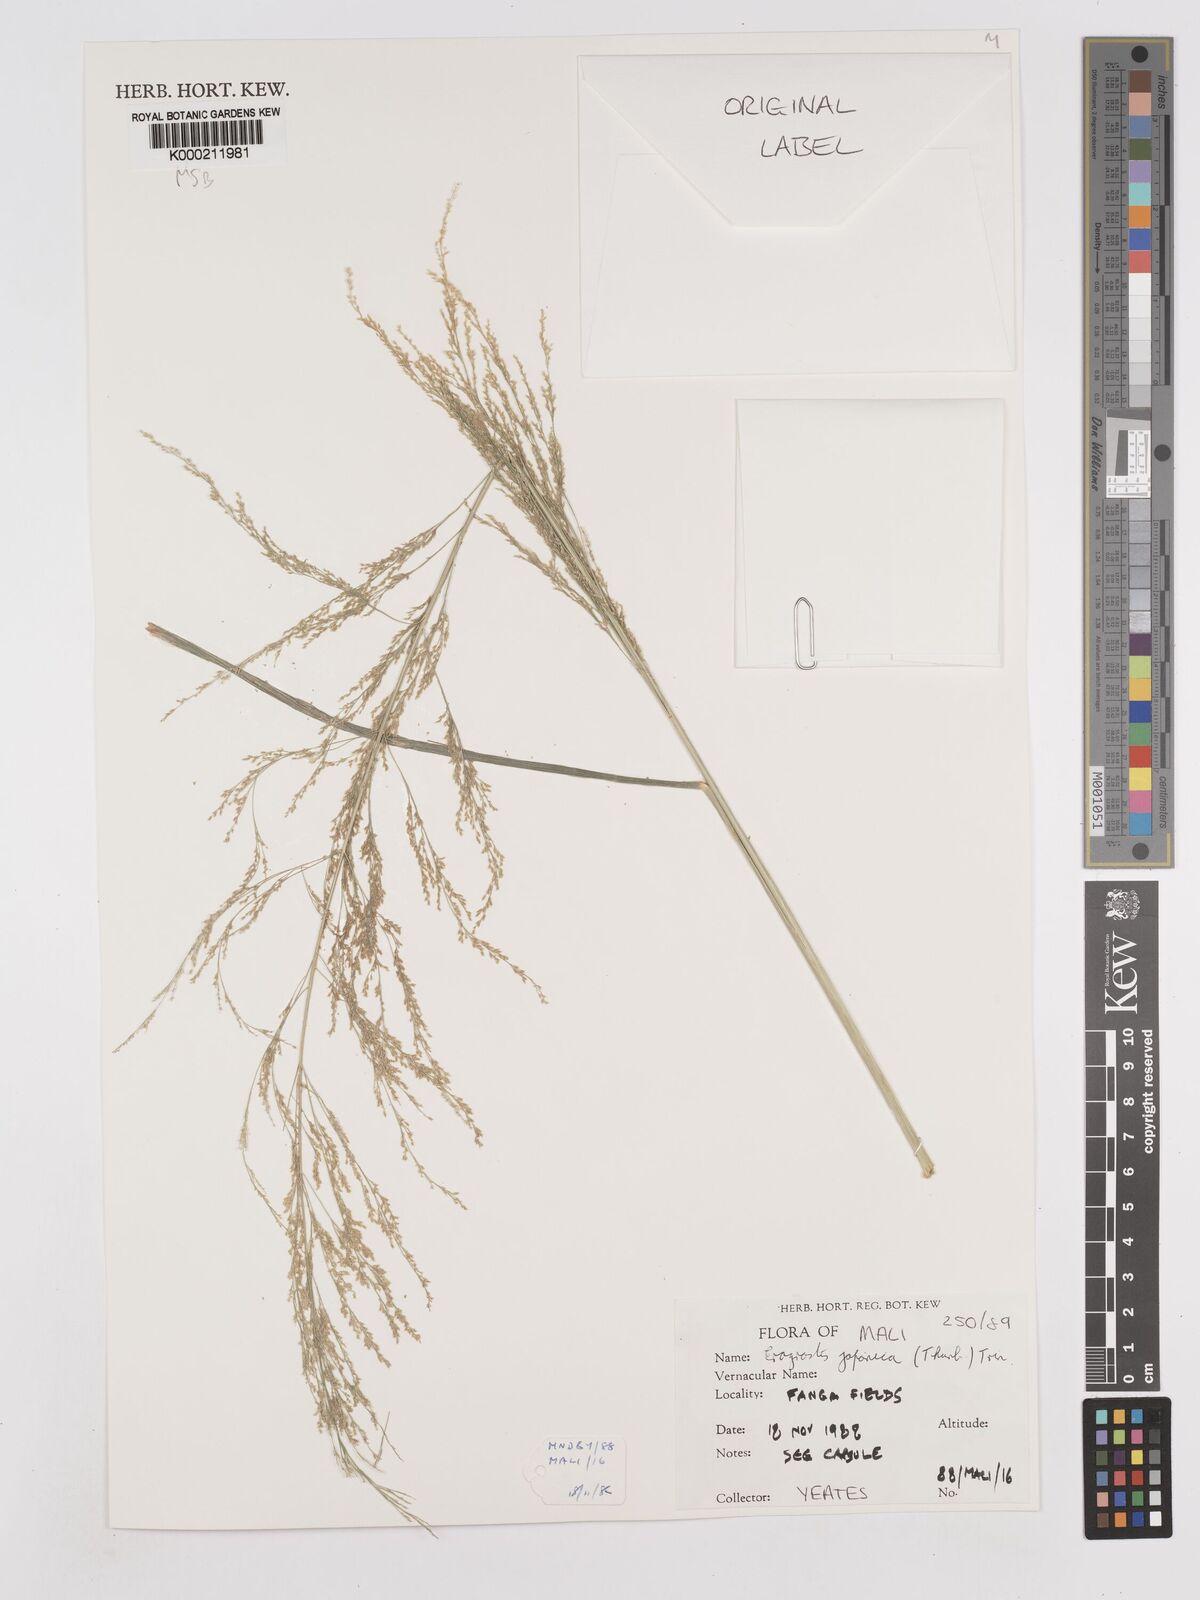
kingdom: Plantae
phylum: Tracheophyta
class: Liliopsida
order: Poales
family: Poaceae
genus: Eragrostis
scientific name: Eragrostis japonica
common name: Pond lovegrass
